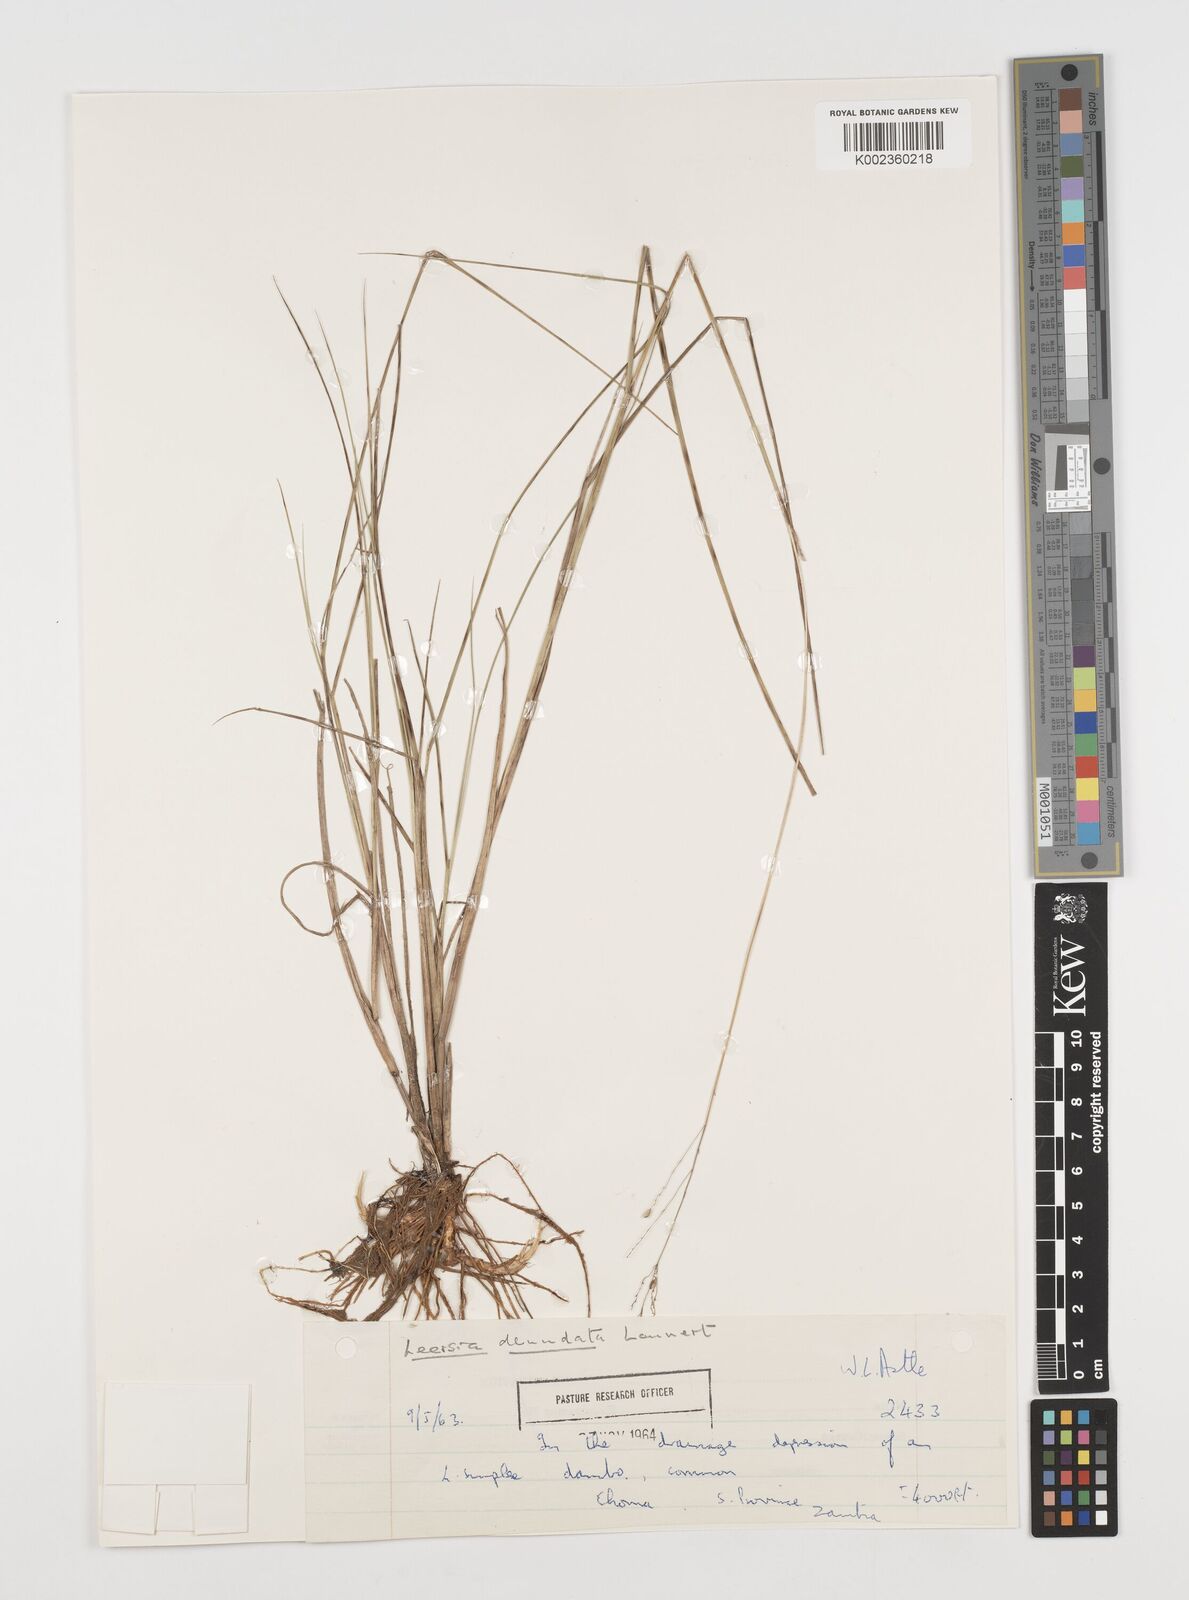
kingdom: Plantae
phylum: Tracheophyta
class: Liliopsida
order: Poales
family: Poaceae
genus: Leersia
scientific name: Leersia oncothrix
